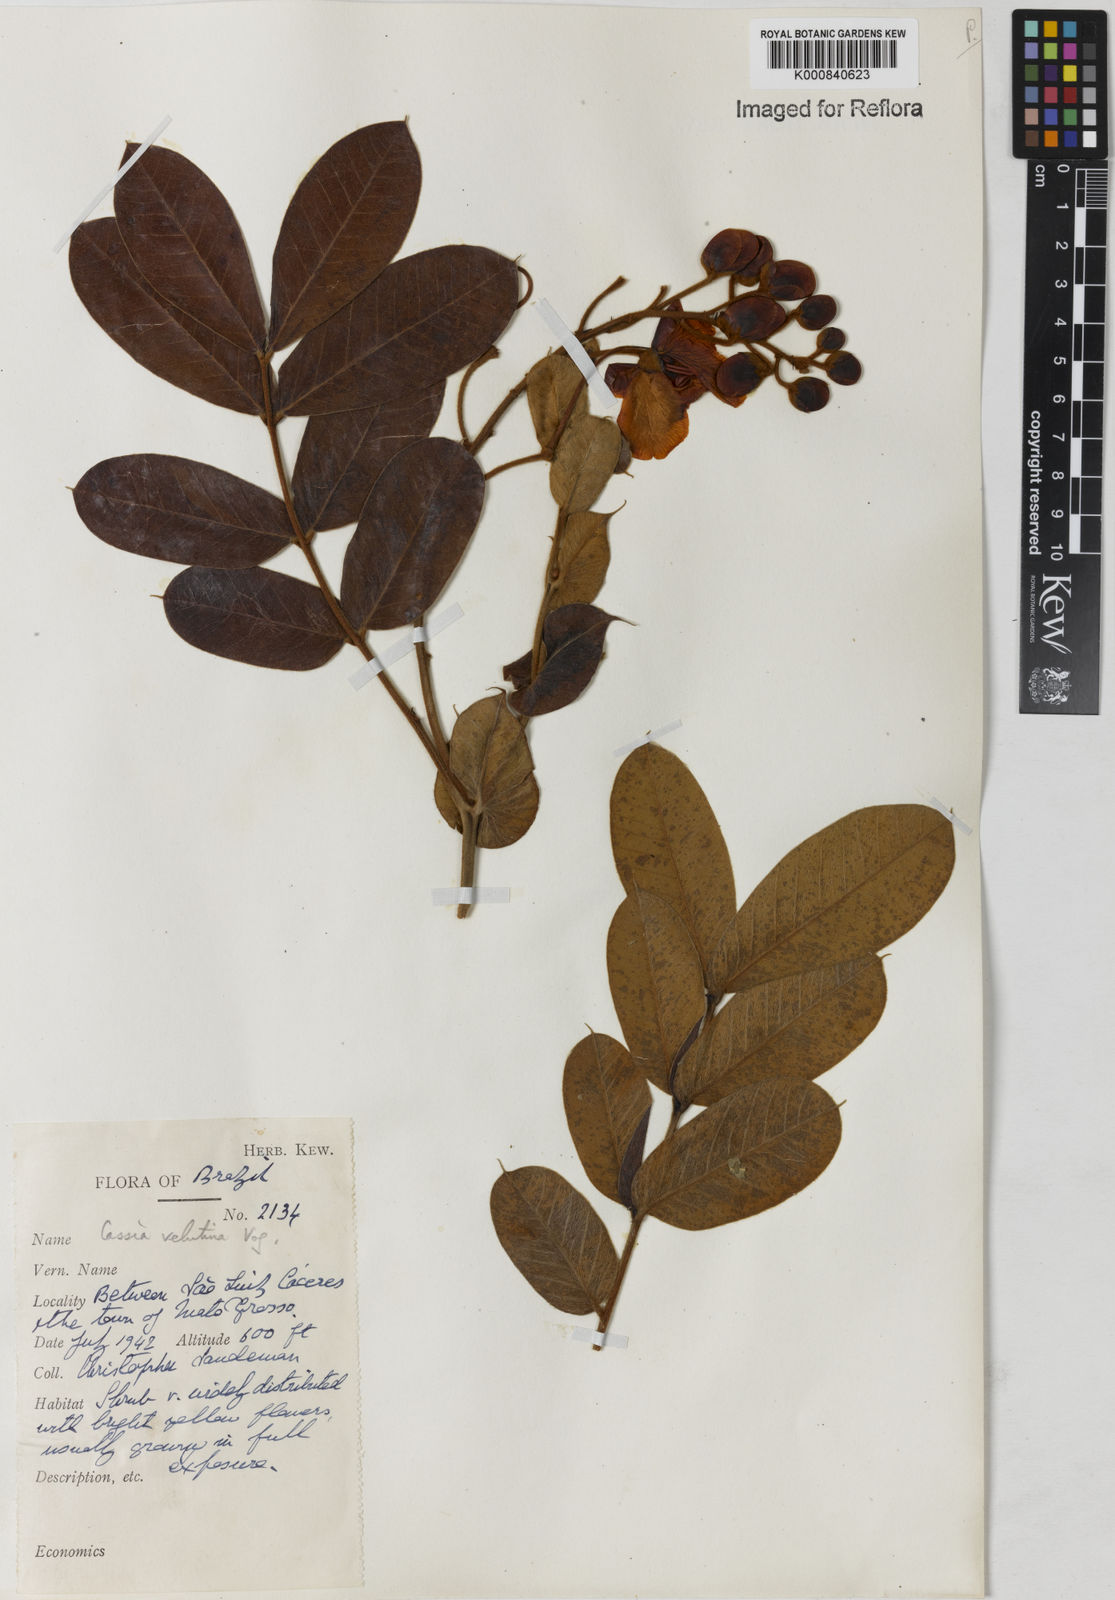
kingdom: Plantae
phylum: Tracheophyta
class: Magnoliopsida
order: Fabales
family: Fabaceae
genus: Senna
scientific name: Senna velutina
